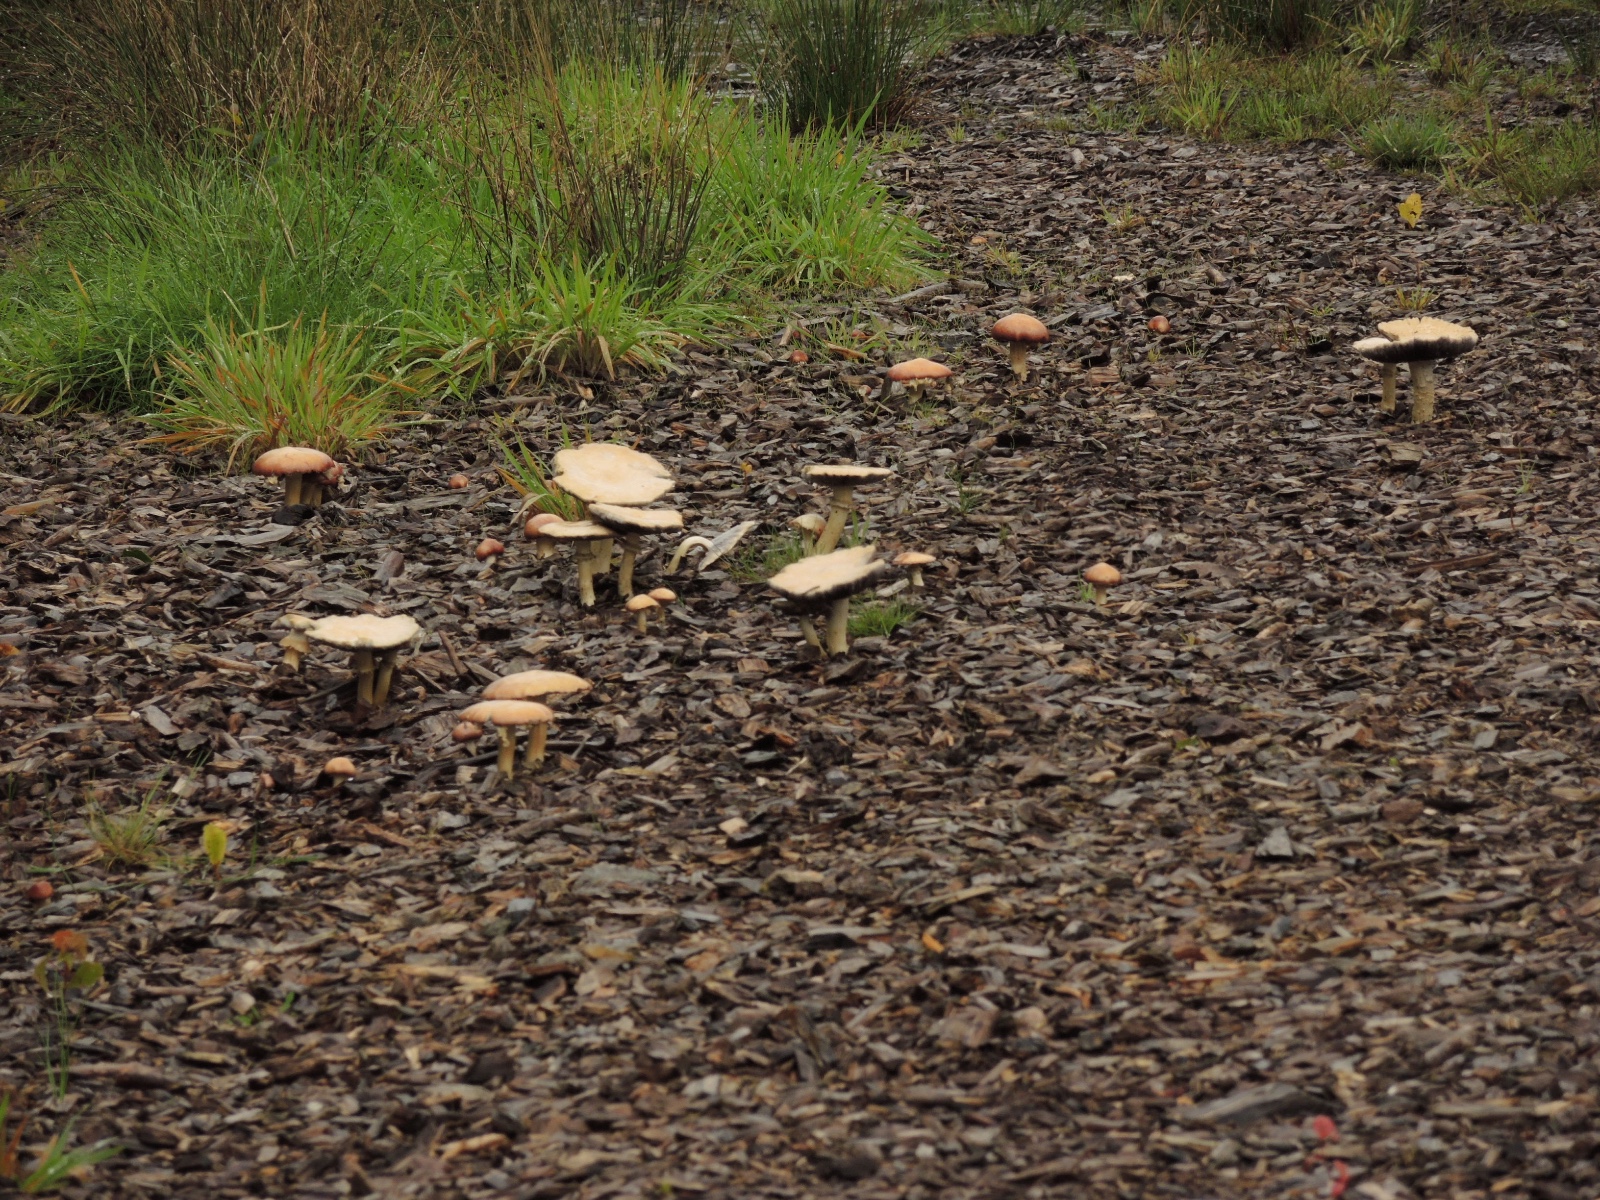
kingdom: Fungi
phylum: Basidiomycota
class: Agaricomycetes
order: Agaricales
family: Strophariaceae
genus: Stropharia
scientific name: Stropharia rugosoannulata
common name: rødbrun bredblad
